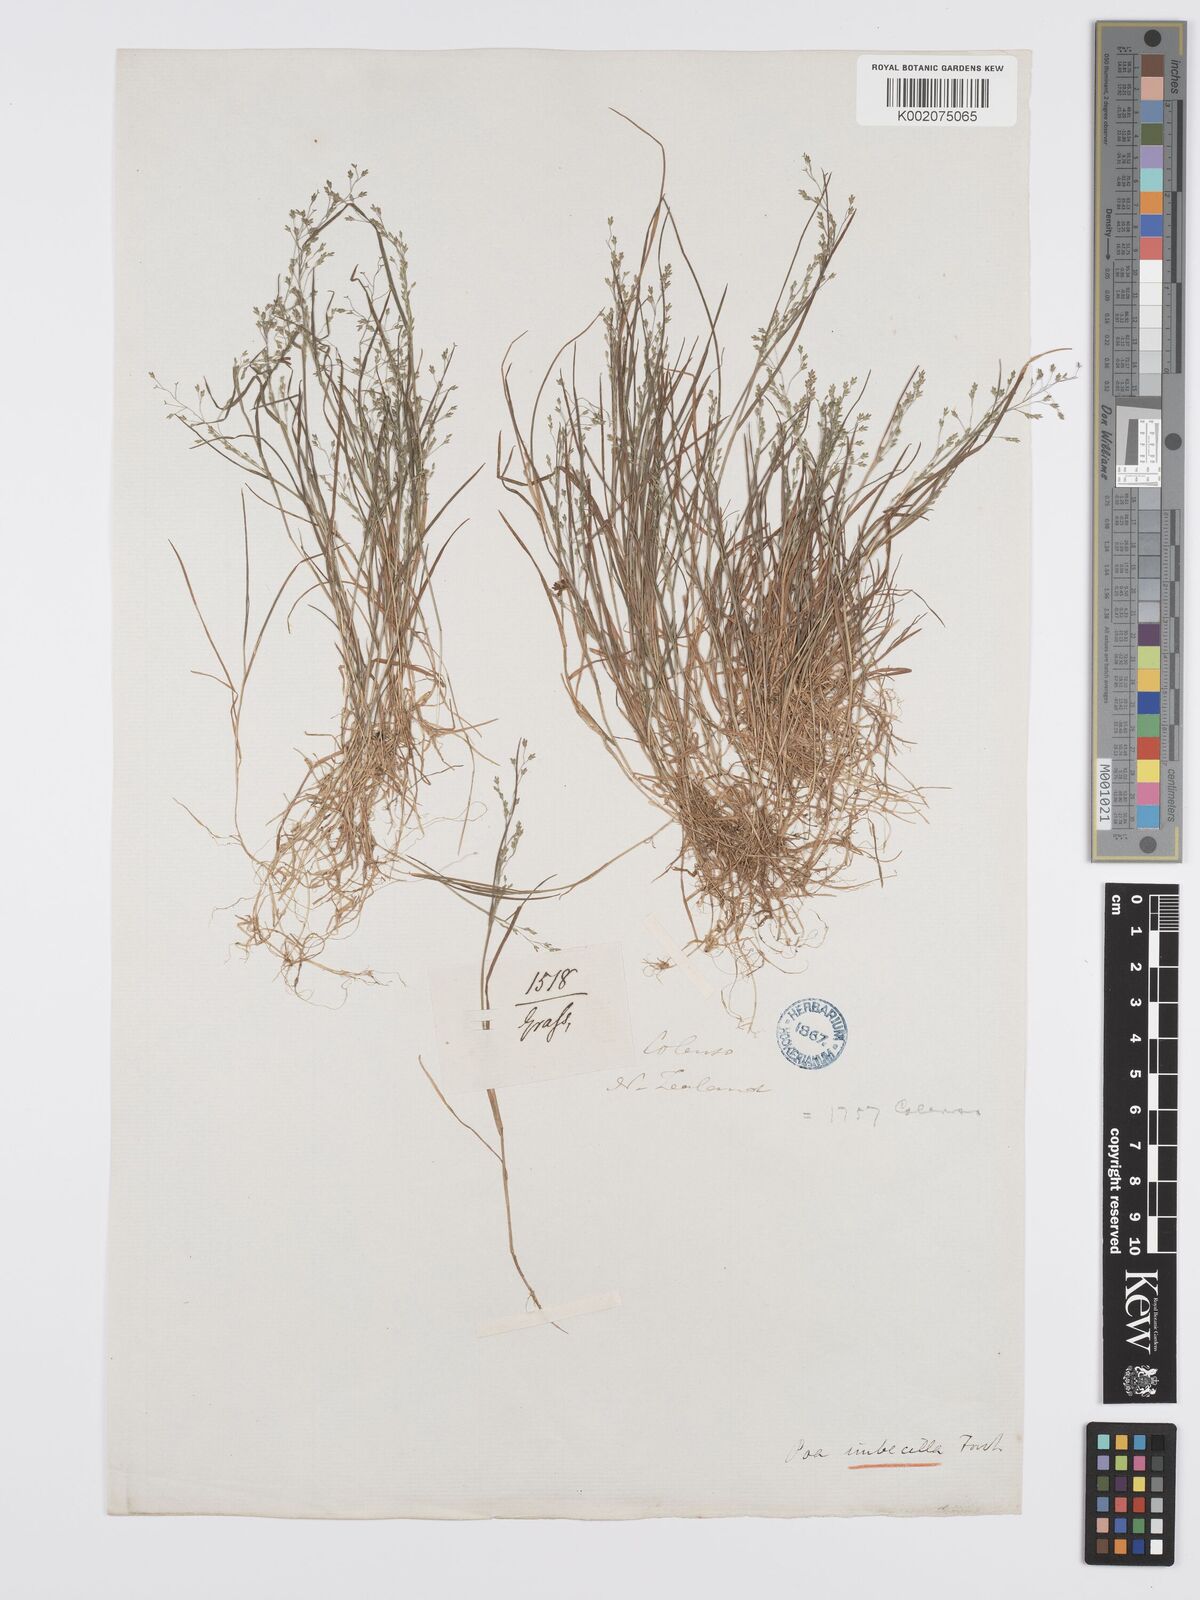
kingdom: Plantae
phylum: Tracheophyta
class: Liliopsida
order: Poales
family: Poaceae
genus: Poa
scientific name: Poa breviglumis
